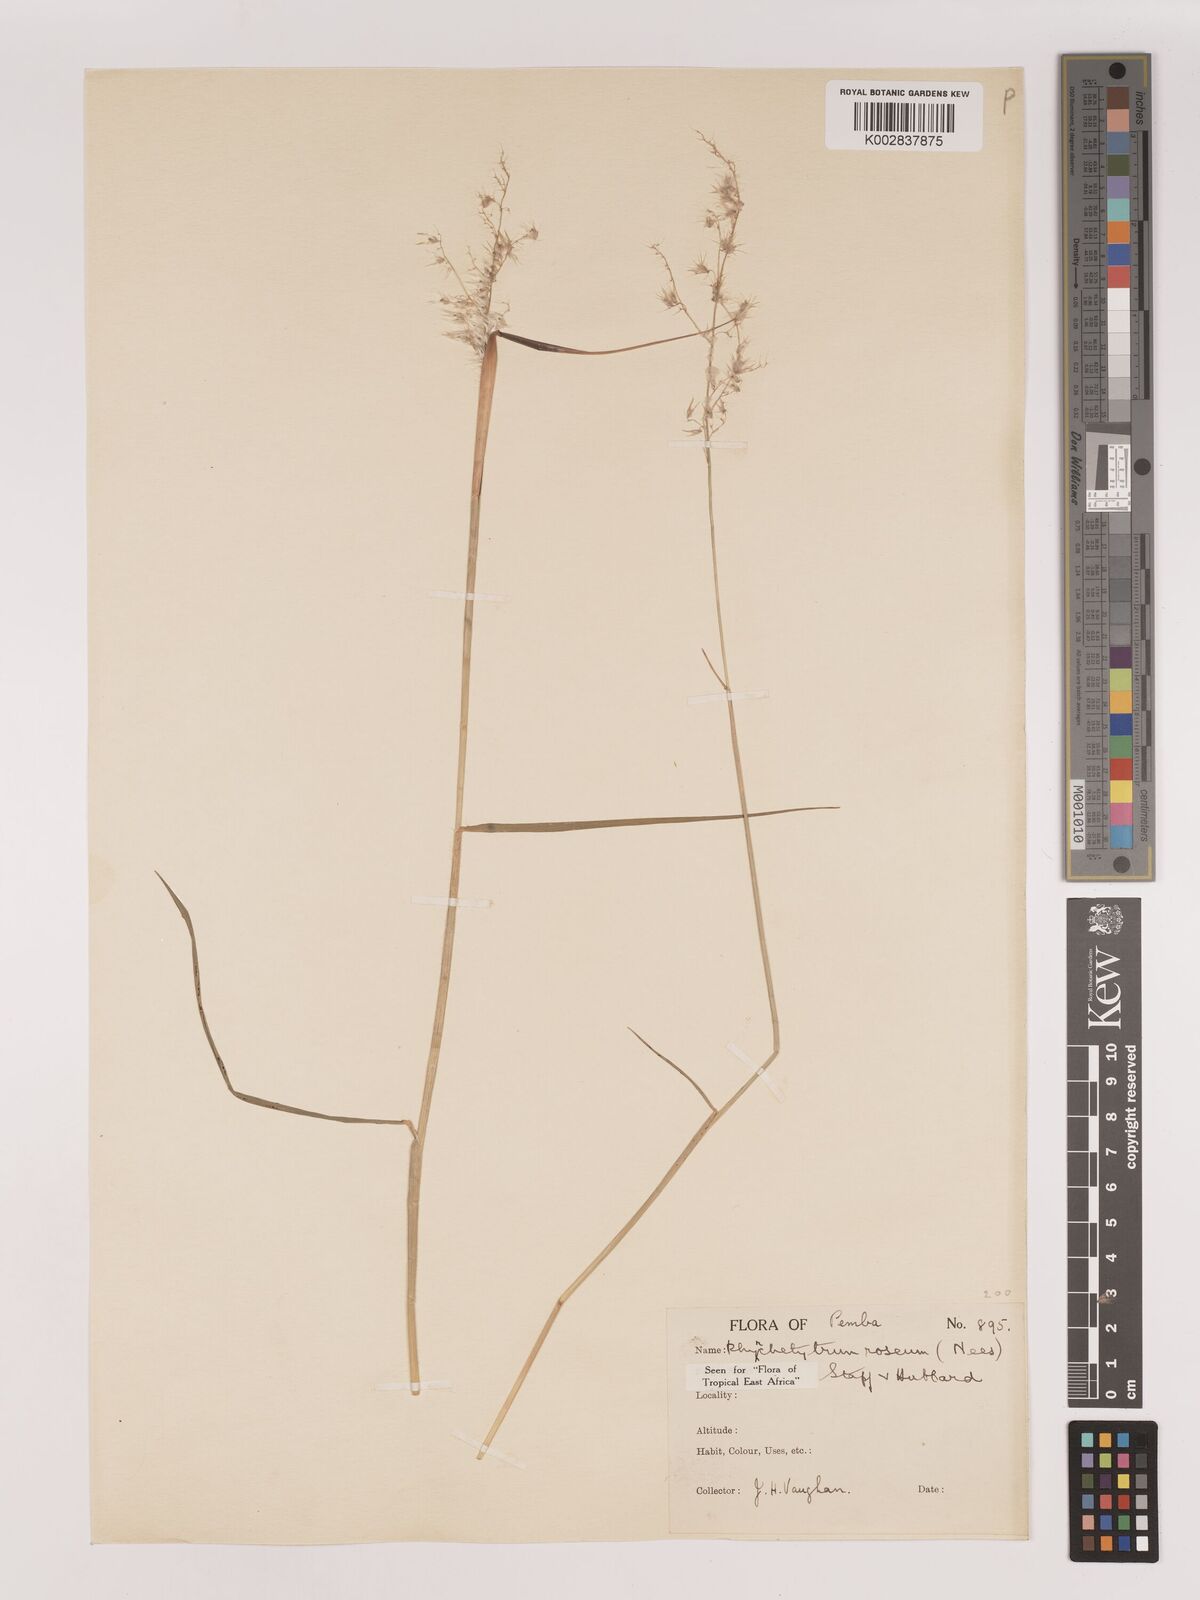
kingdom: Plantae
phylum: Tracheophyta
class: Liliopsida
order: Poales
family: Poaceae
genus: Melinis
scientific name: Melinis repens
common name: Rose natal grass
